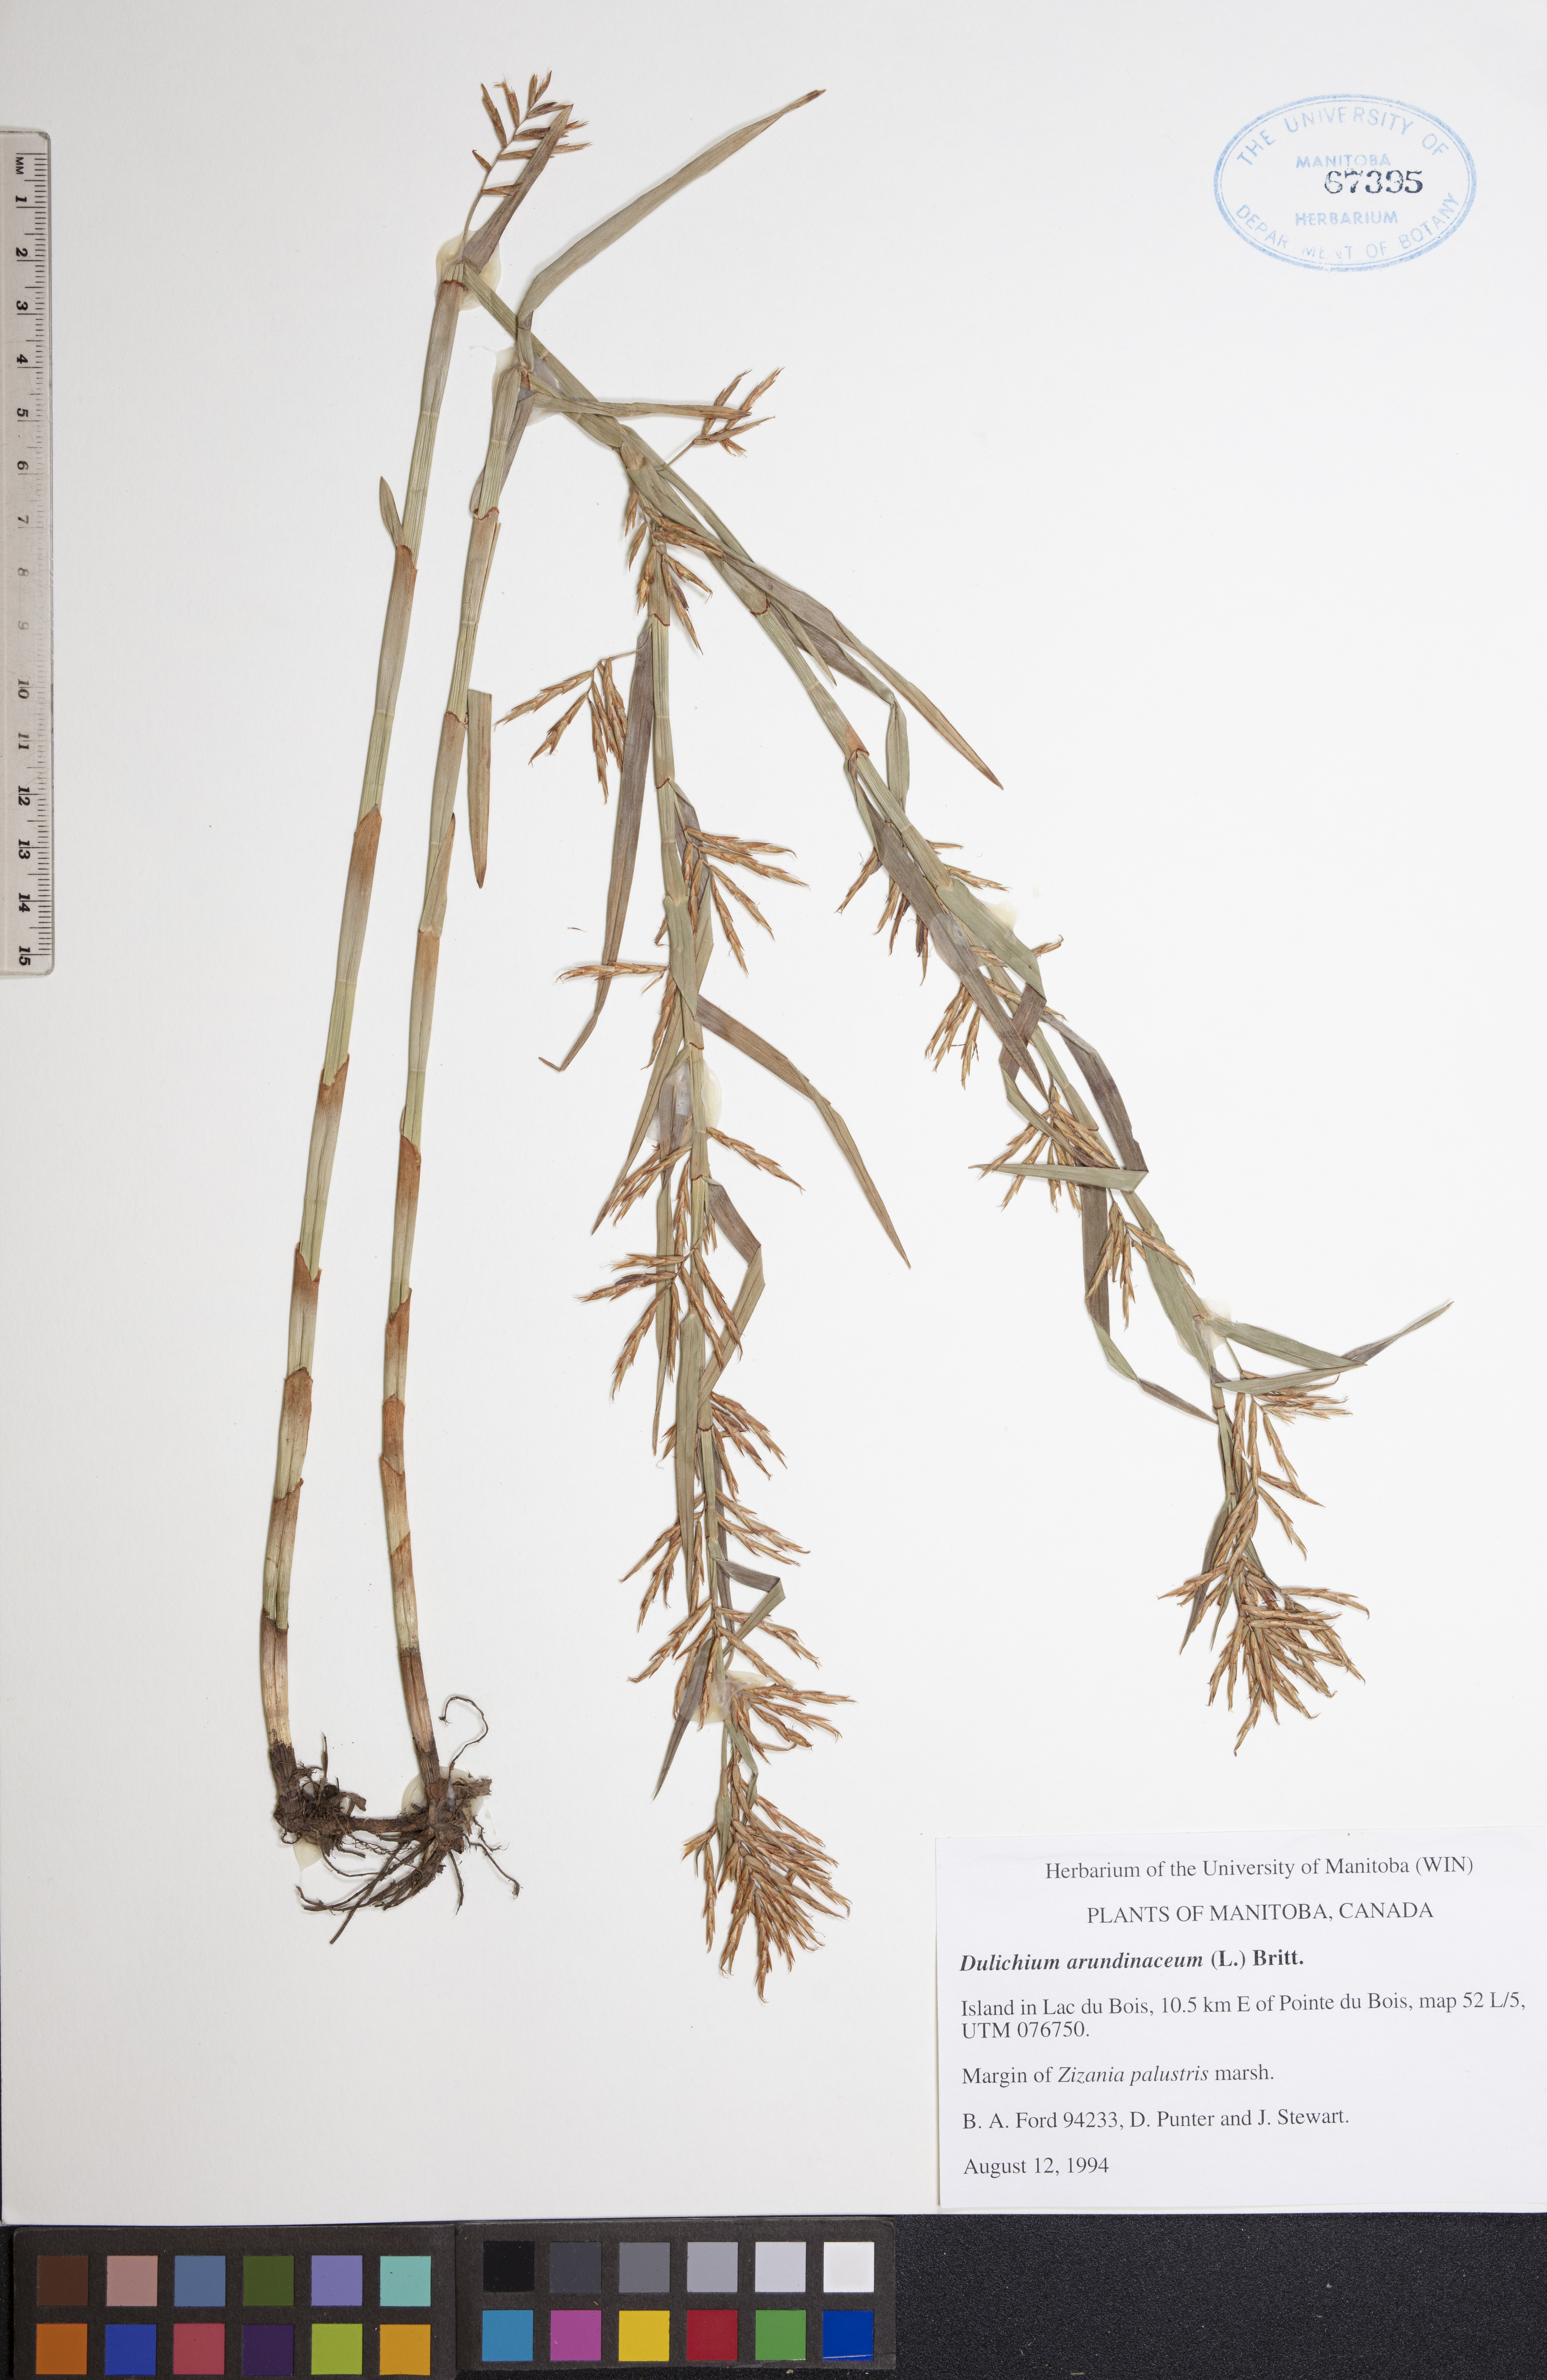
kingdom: Plantae
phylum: Tracheophyta
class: Liliopsida
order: Poales
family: Cyperaceae
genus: Dulichium
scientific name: Dulichium arundinaceum
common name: Three-way sedge
